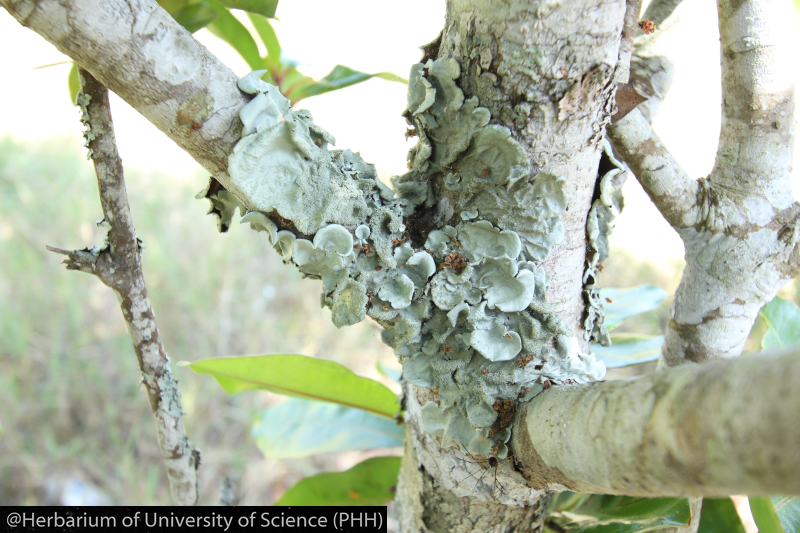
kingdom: Fungi
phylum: Ascomycota
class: Lecanoromycetes
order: Lecanorales
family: Parmeliaceae
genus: Parmotrema
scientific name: Parmotrema
